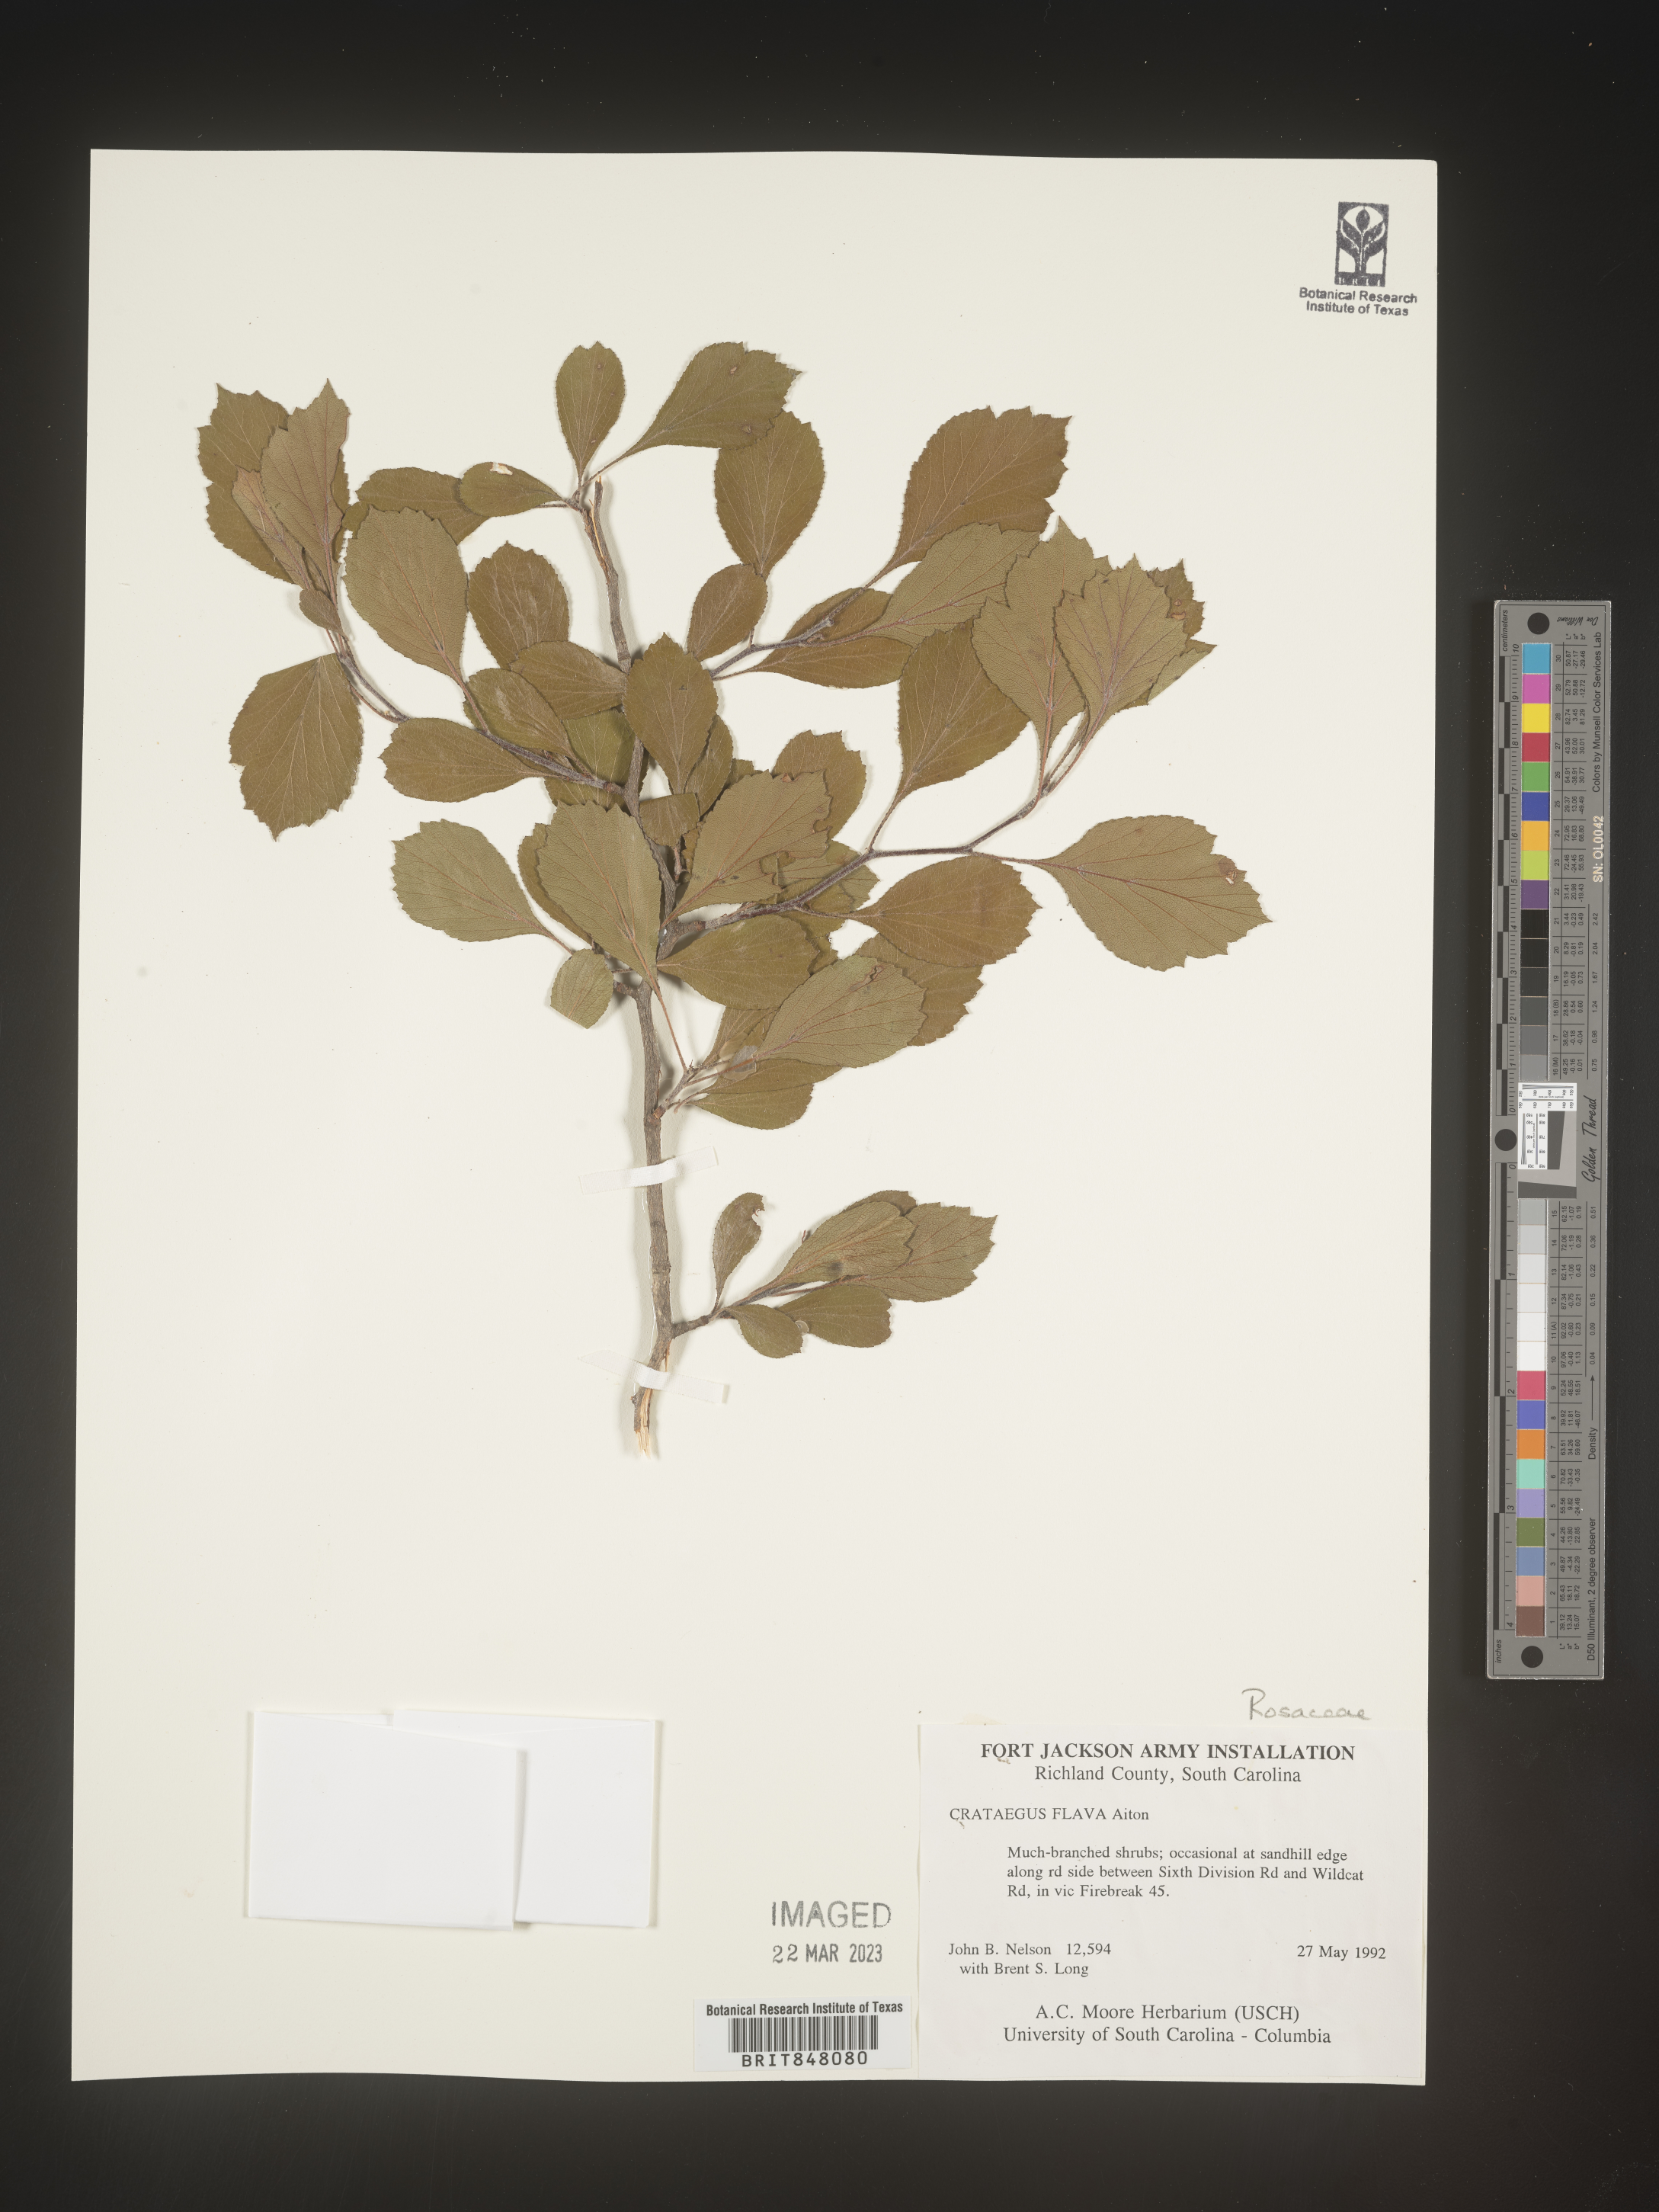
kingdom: Plantae
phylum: Tracheophyta
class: Magnoliopsida
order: Rosales
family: Rosaceae
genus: Crataegus
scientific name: Crataegus
